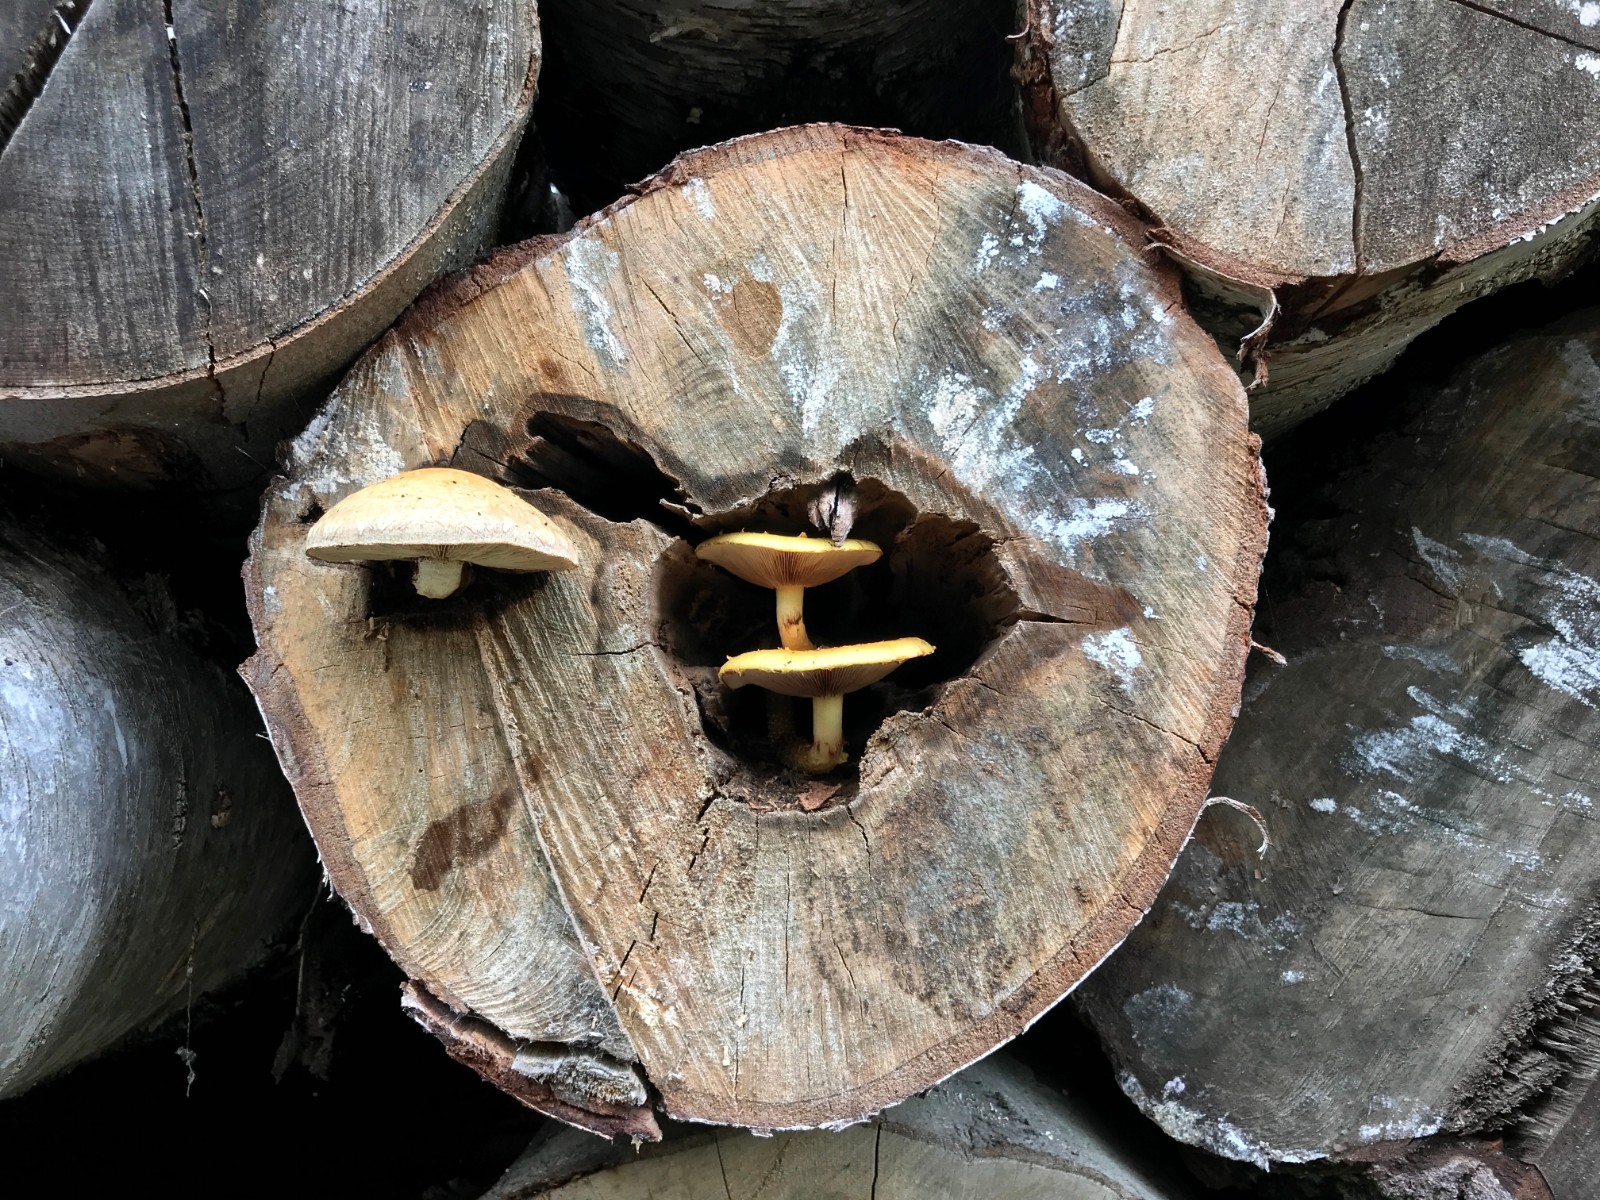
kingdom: Fungi
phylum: Basidiomycota
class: Agaricomycetes
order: Agaricales
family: Strophariaceae
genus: Pholiota
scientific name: Pholiota populnea
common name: poppel-kæmpeskælhat
